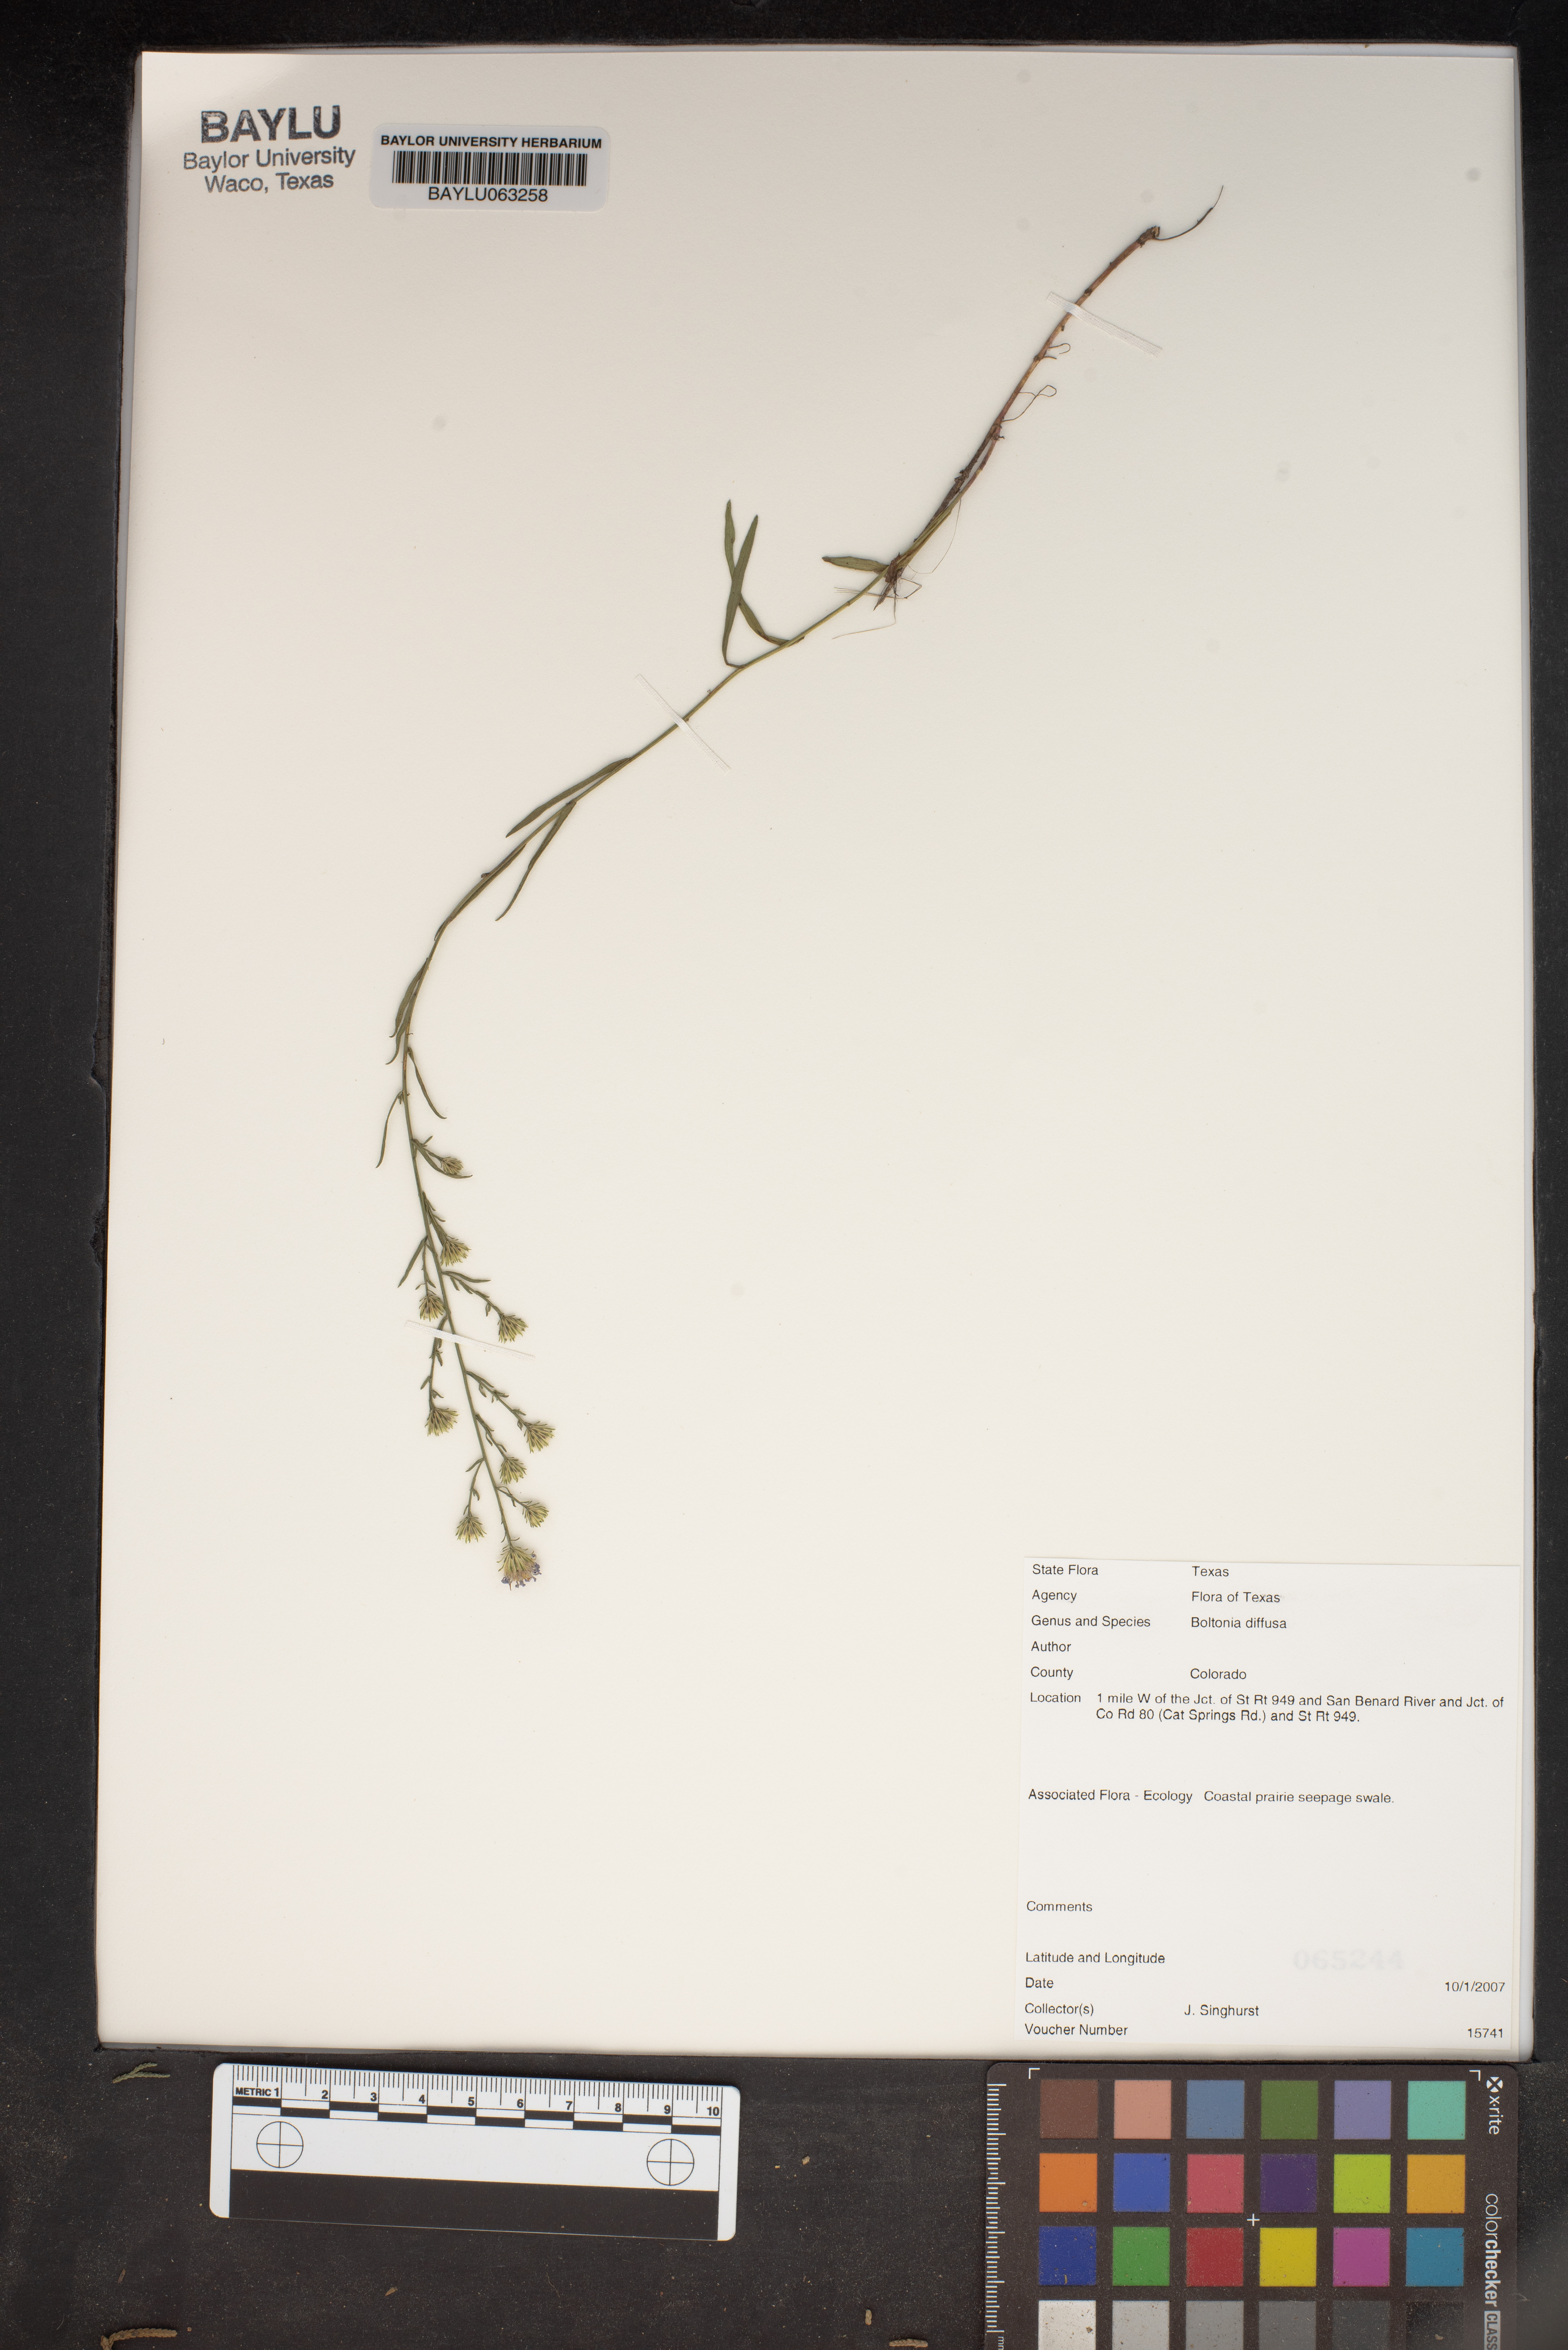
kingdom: Plantae
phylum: Tracheophyta
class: Magnoliopsida
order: Asterales
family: Asteraceae
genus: Boltonia
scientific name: Boltonia diffusa
